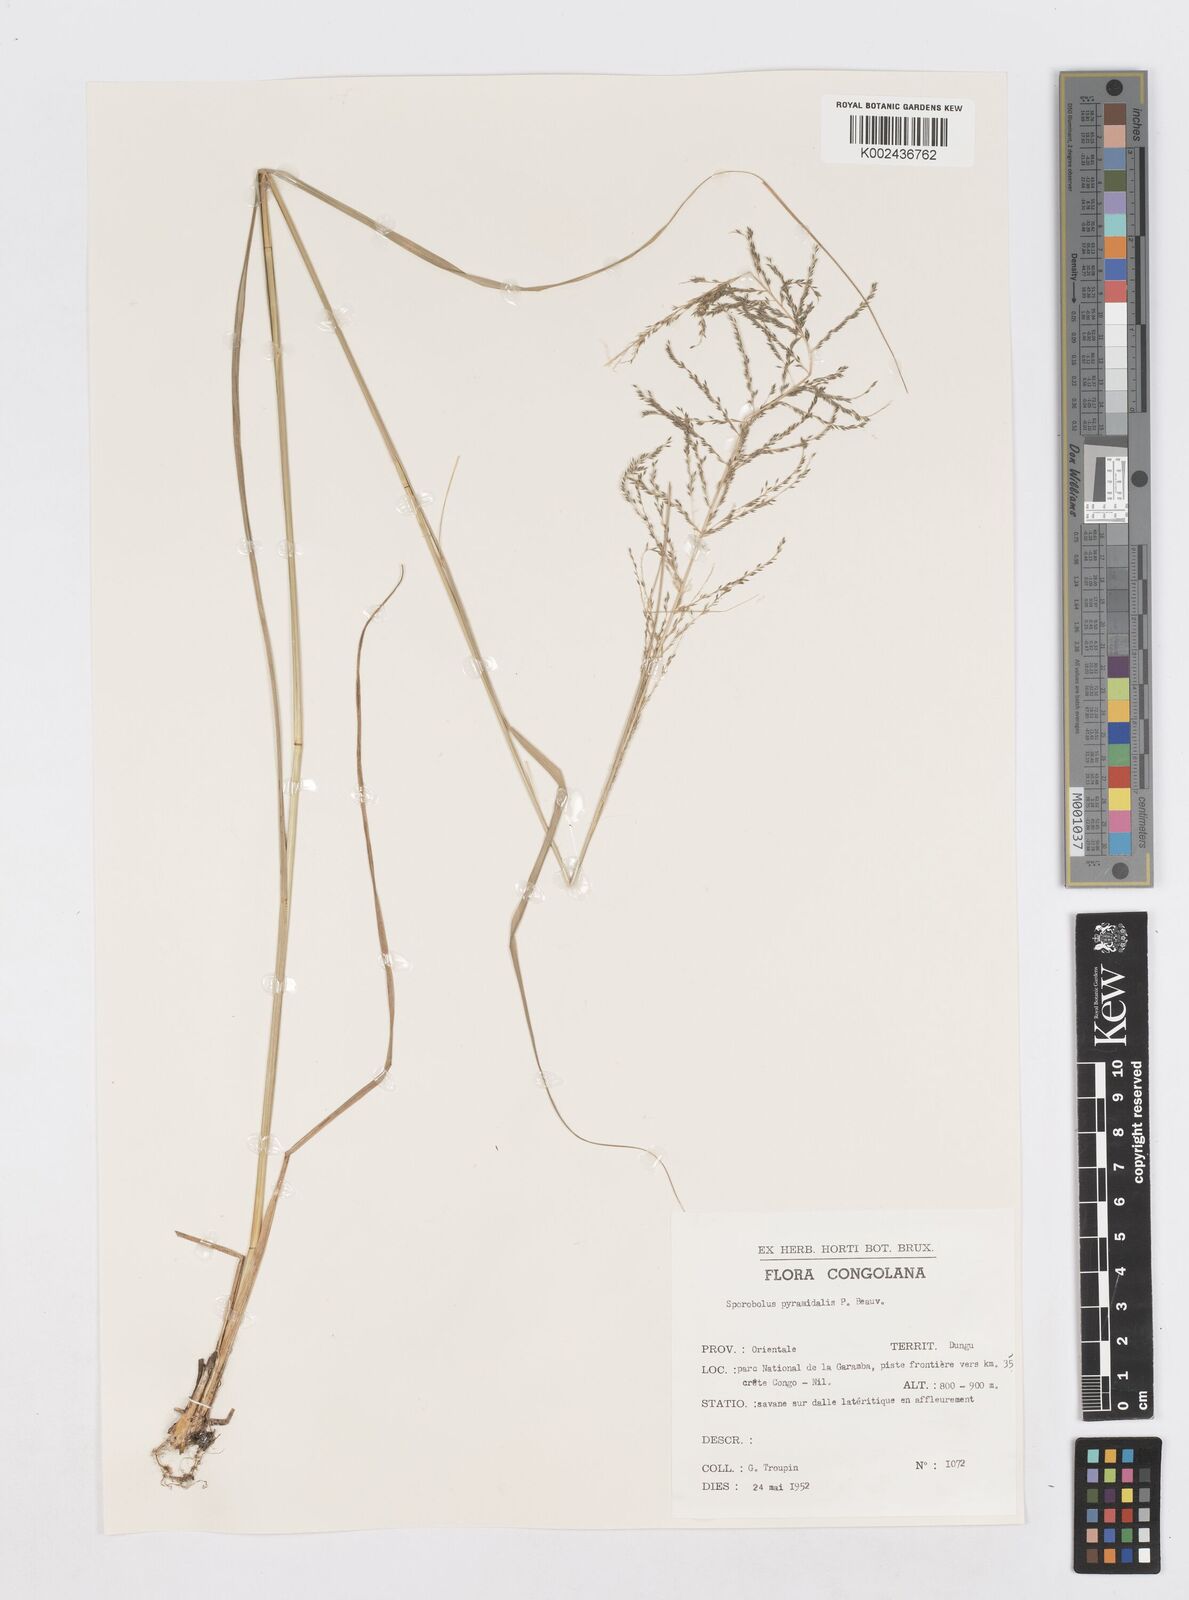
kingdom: Plantae
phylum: Tracheophyta
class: Liliopsida
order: Poales
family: Poaceae
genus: Sporobolus
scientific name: Sporobolus pyramidalis
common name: West indian dropseed
